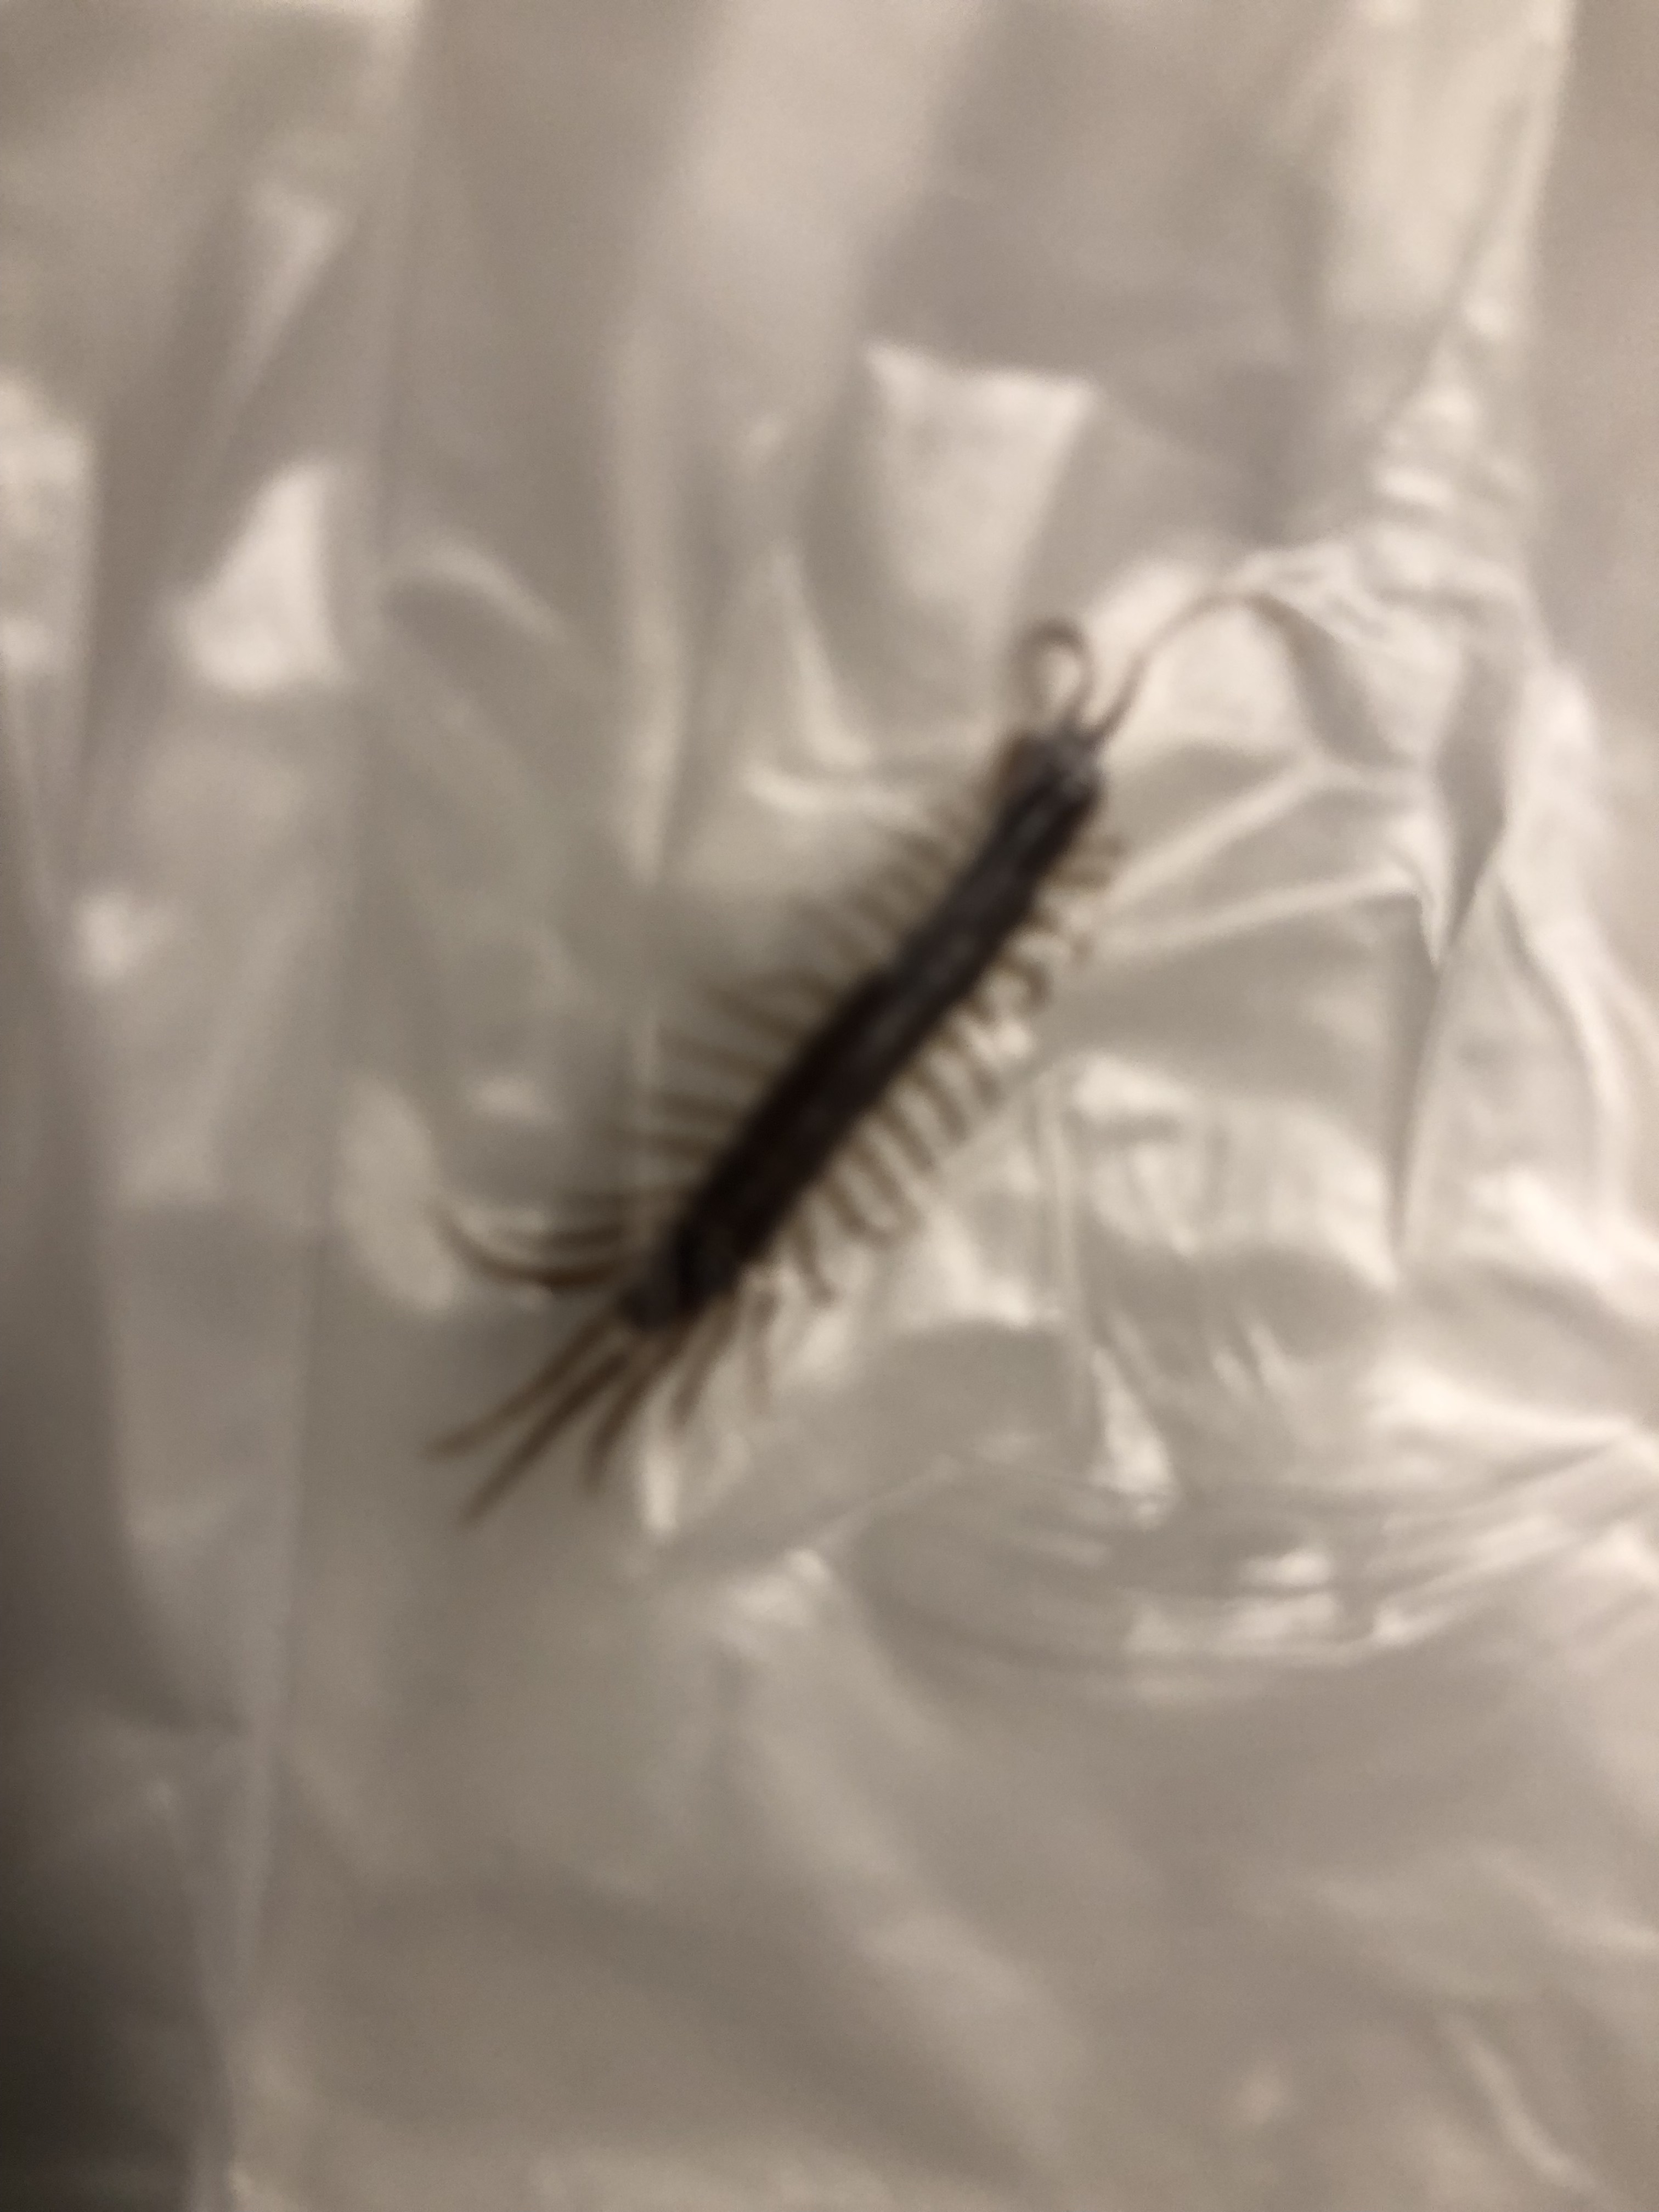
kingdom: Animalia
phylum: Arthropoda
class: Chilopoda
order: Lithobiomorpha
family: Lithobiidae
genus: Lithobius
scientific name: Lithobius forficatus
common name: Centipede
